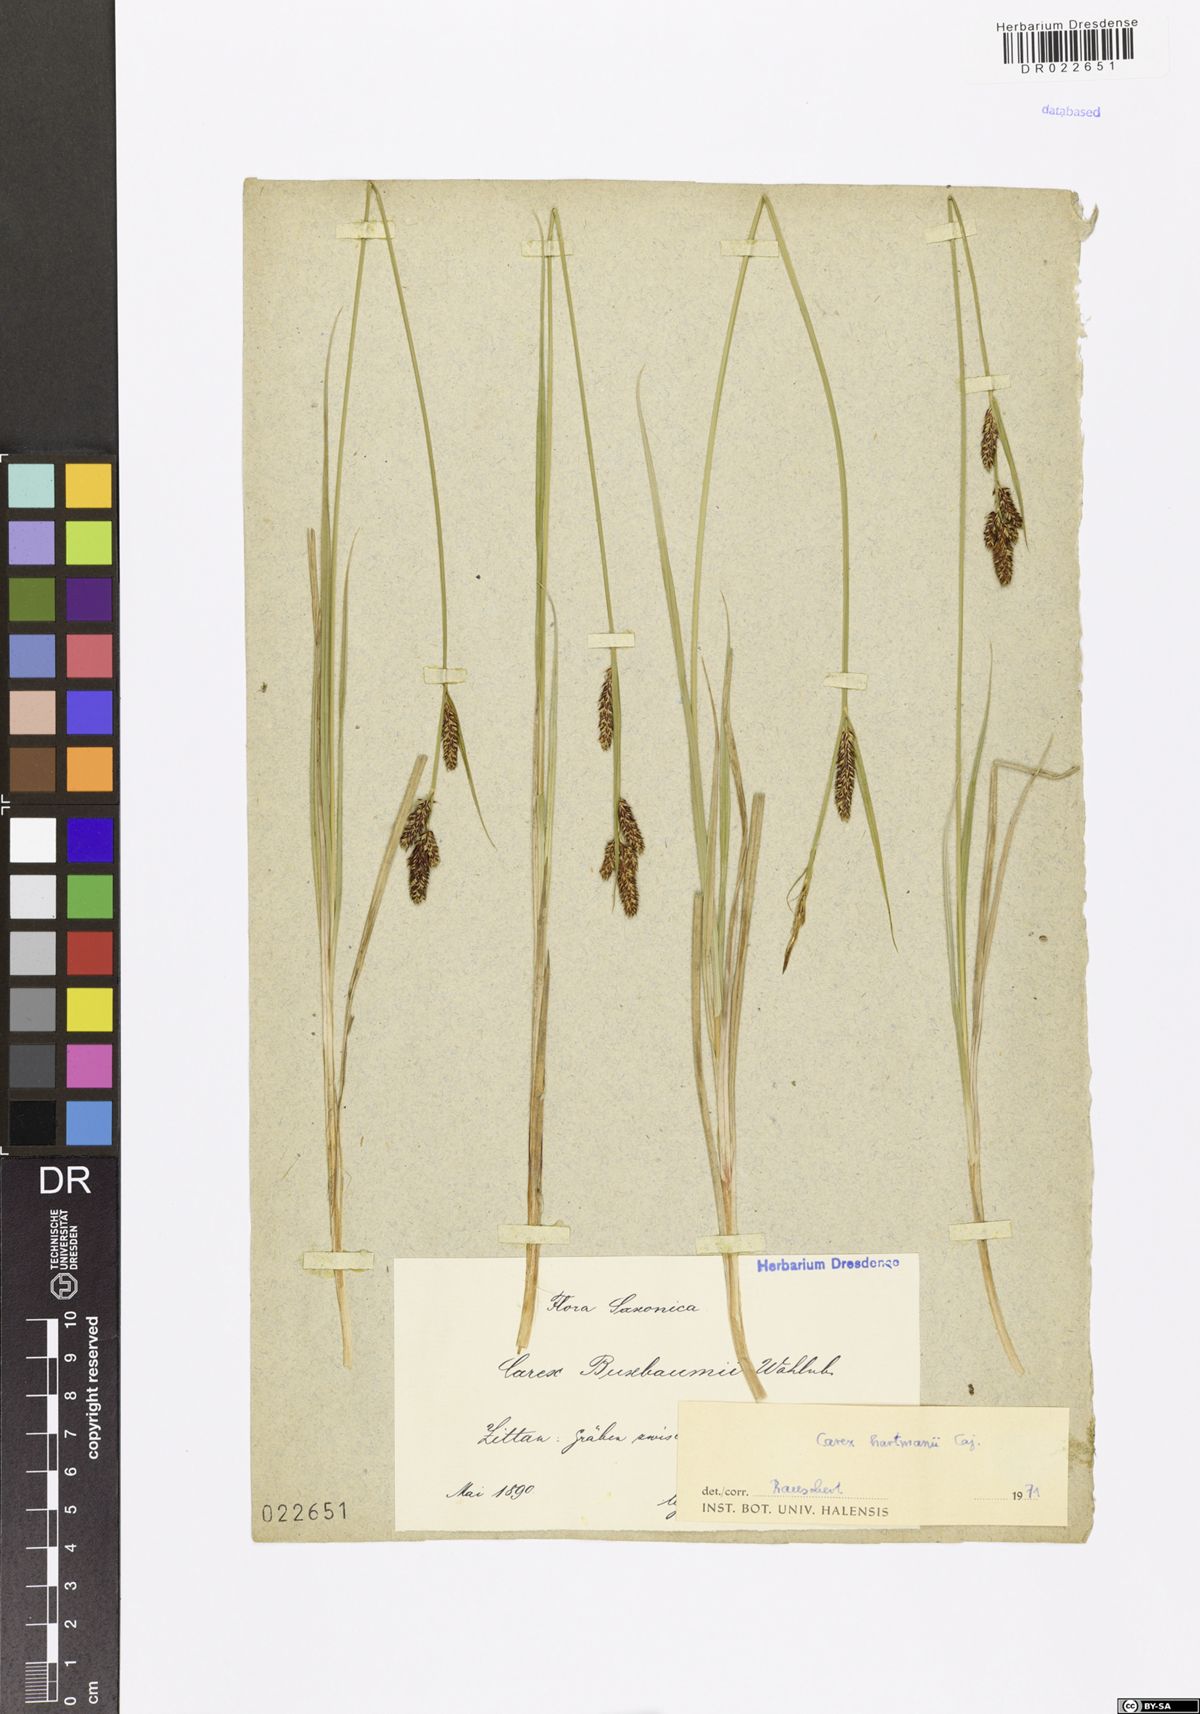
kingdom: Plantae
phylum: Tracheophyta
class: Liliopsida
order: Poales
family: Cyperaceae
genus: Carex
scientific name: Carex hartmaniorum
